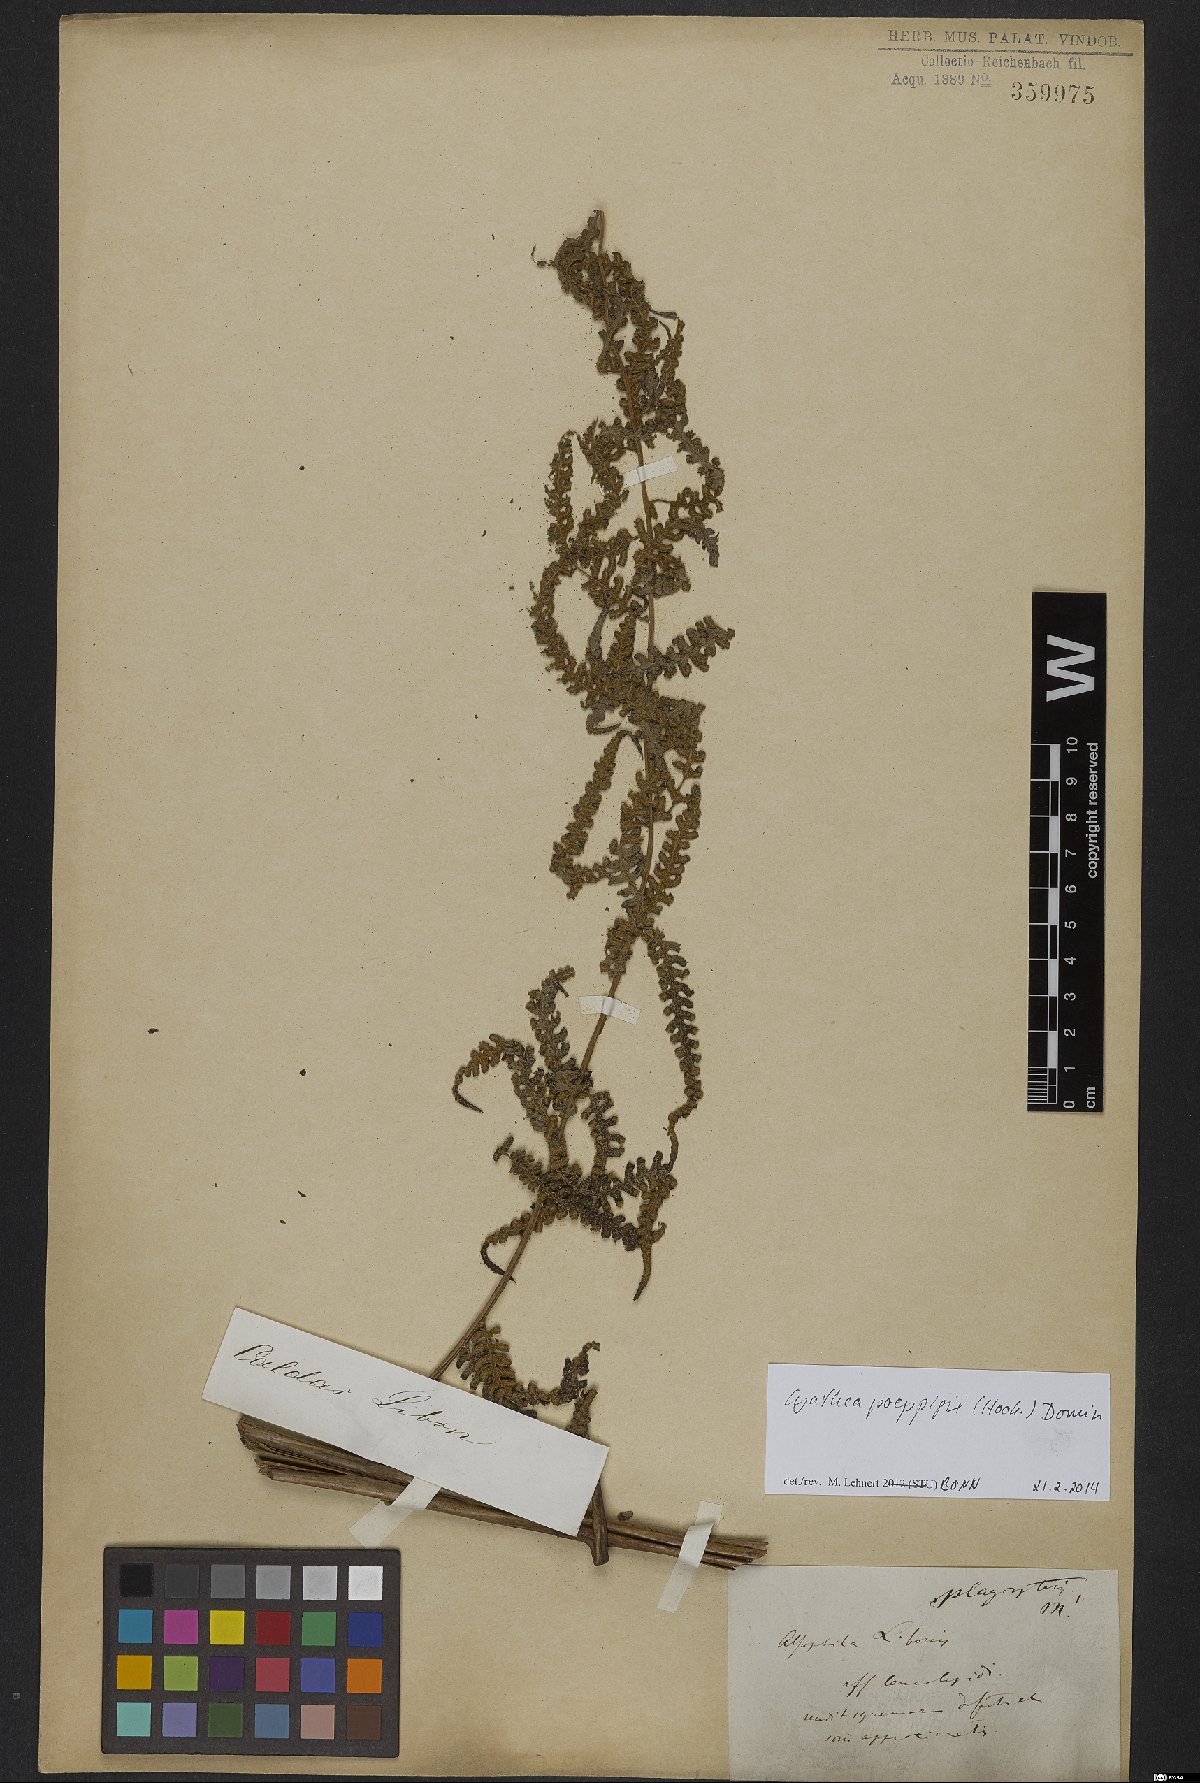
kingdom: Plantae
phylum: Tracheophyta
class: Polypodiopsida
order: Cyatheales
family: Cyatheaceae
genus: Cyathea
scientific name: Cyathea poeppigii
